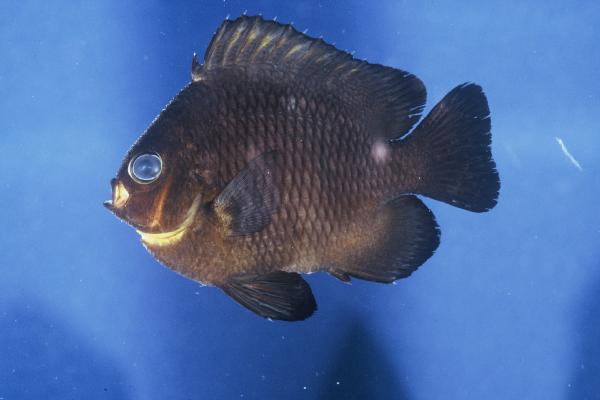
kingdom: Animalia
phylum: Chordata
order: Perciformes
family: Pomacentridae
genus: Dascyllus
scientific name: Dascyllus trimaculatus
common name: Threespot dascyllus
